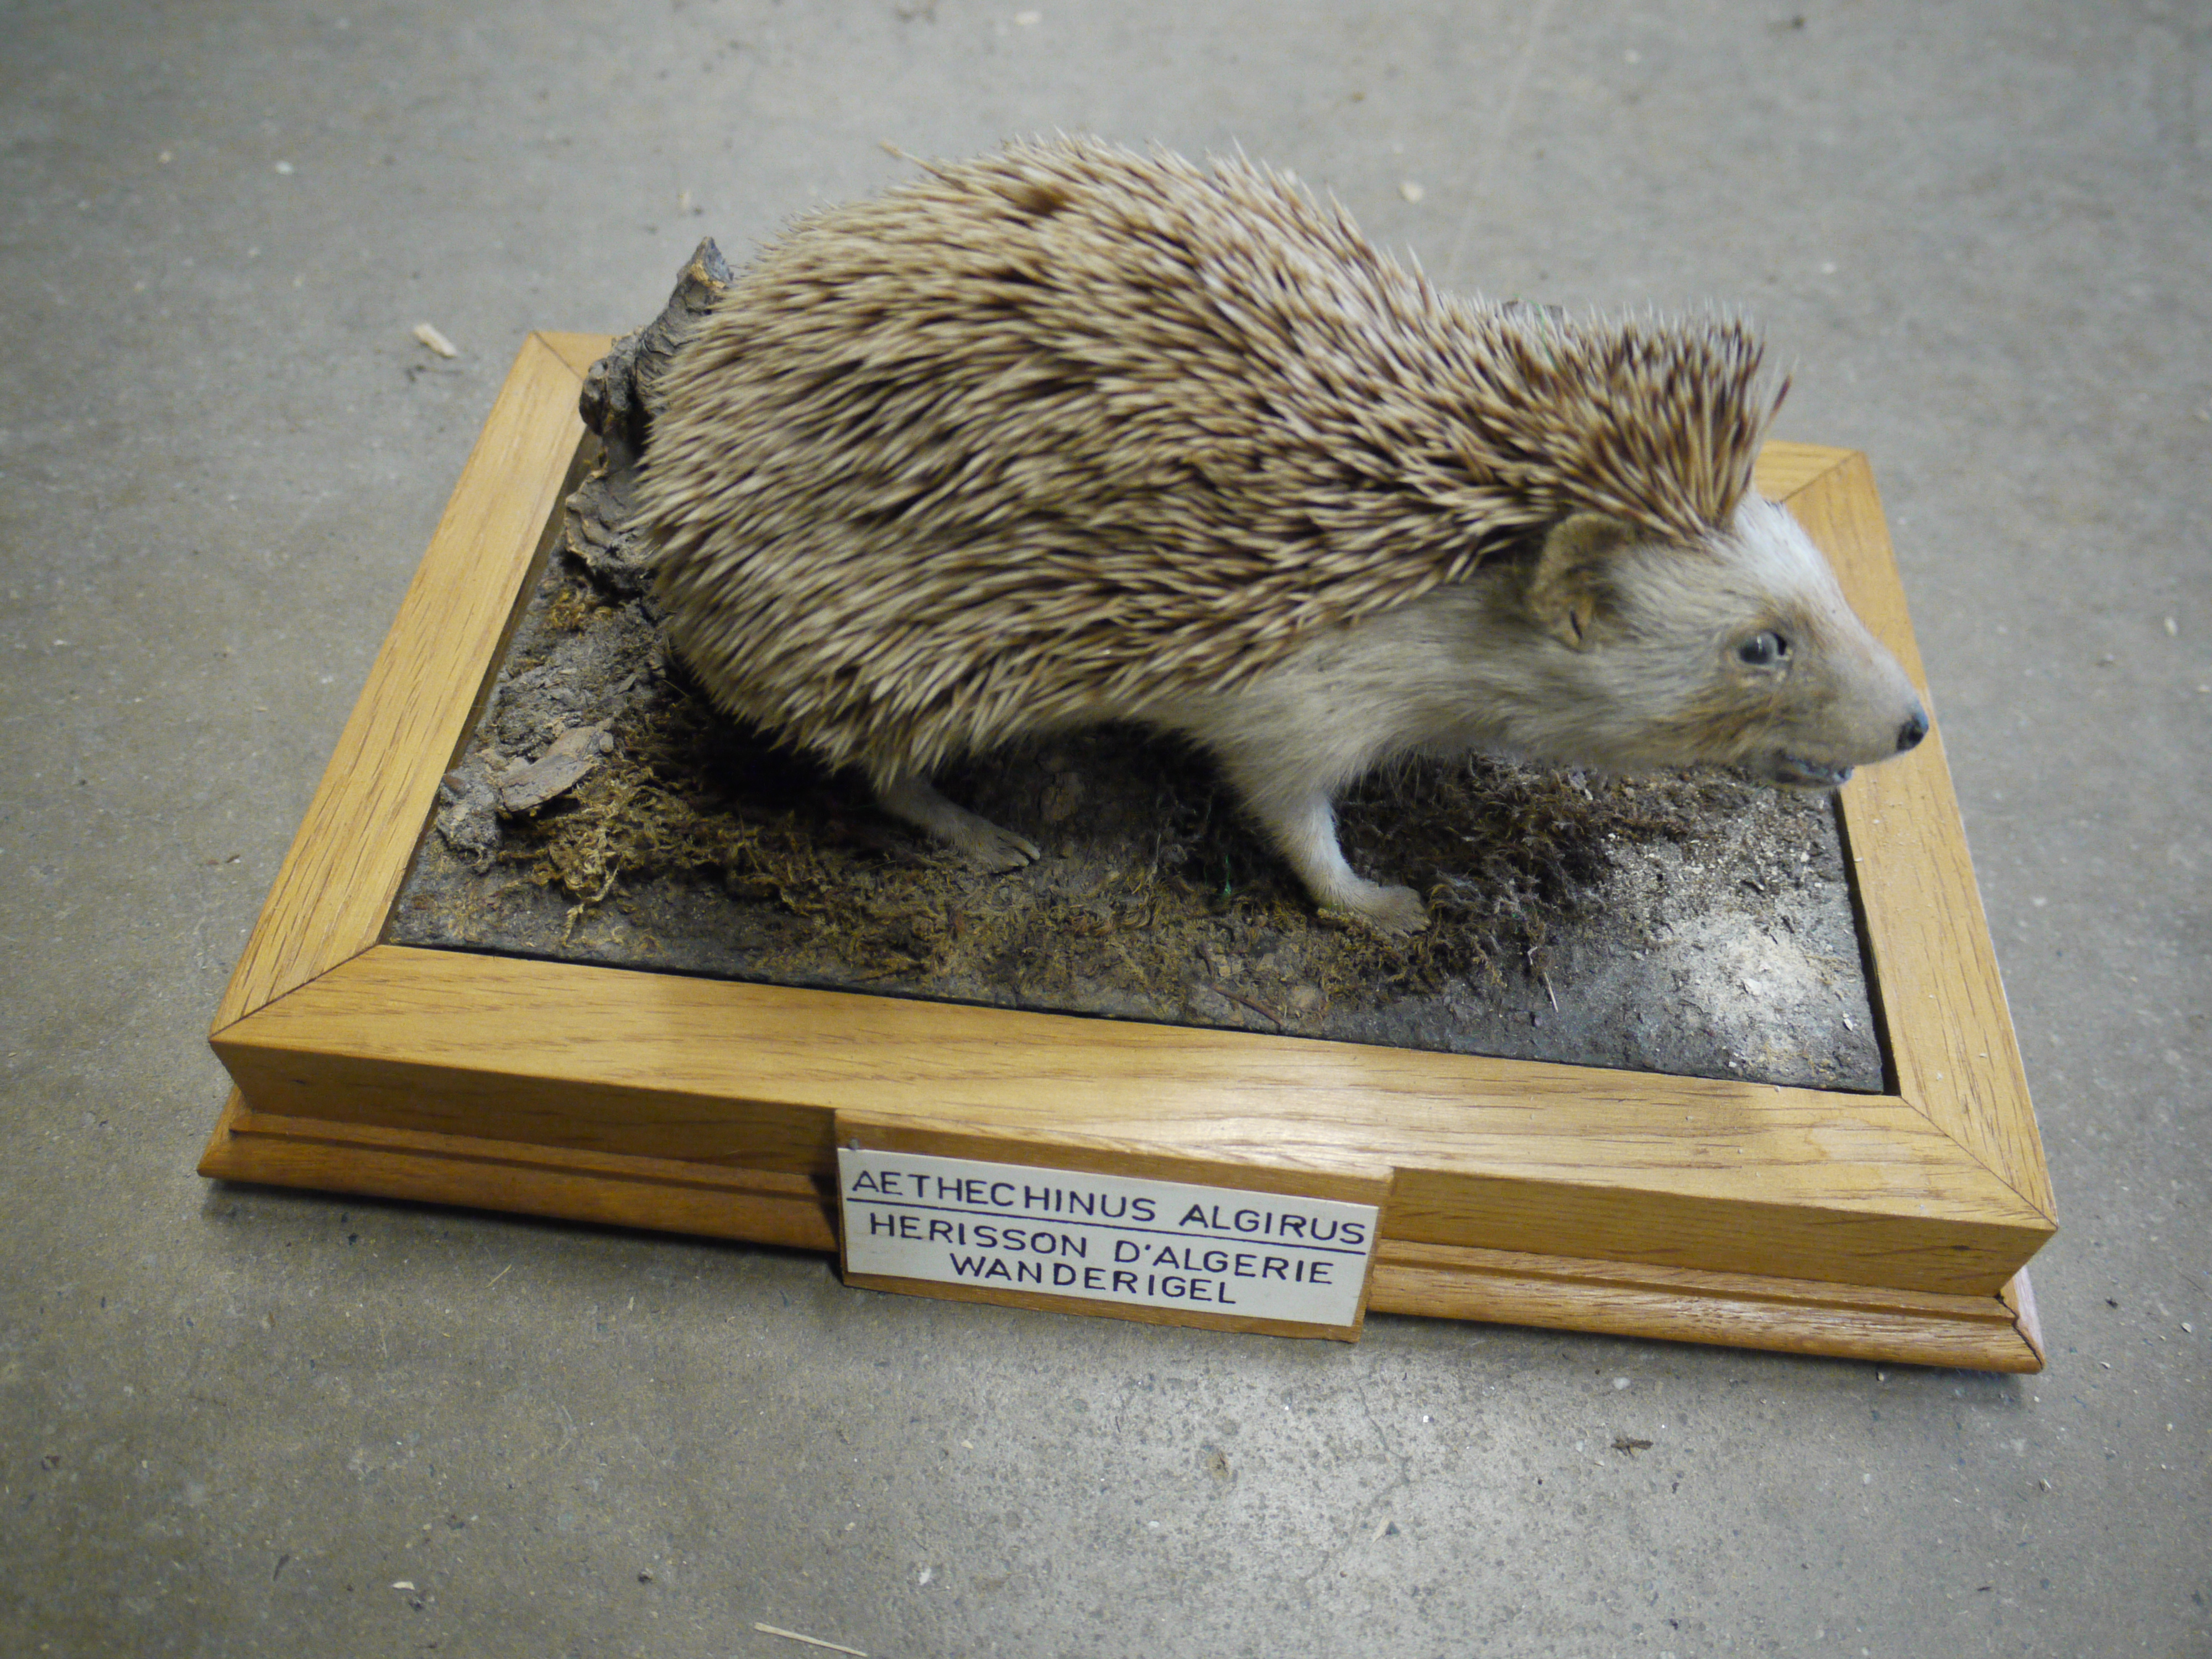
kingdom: Animalia
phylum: Chordata
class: Mammalia
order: Erinaceomorpha
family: Erinaceidae
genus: Atelerix
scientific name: Atelerix algirus
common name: North african hedgehog
